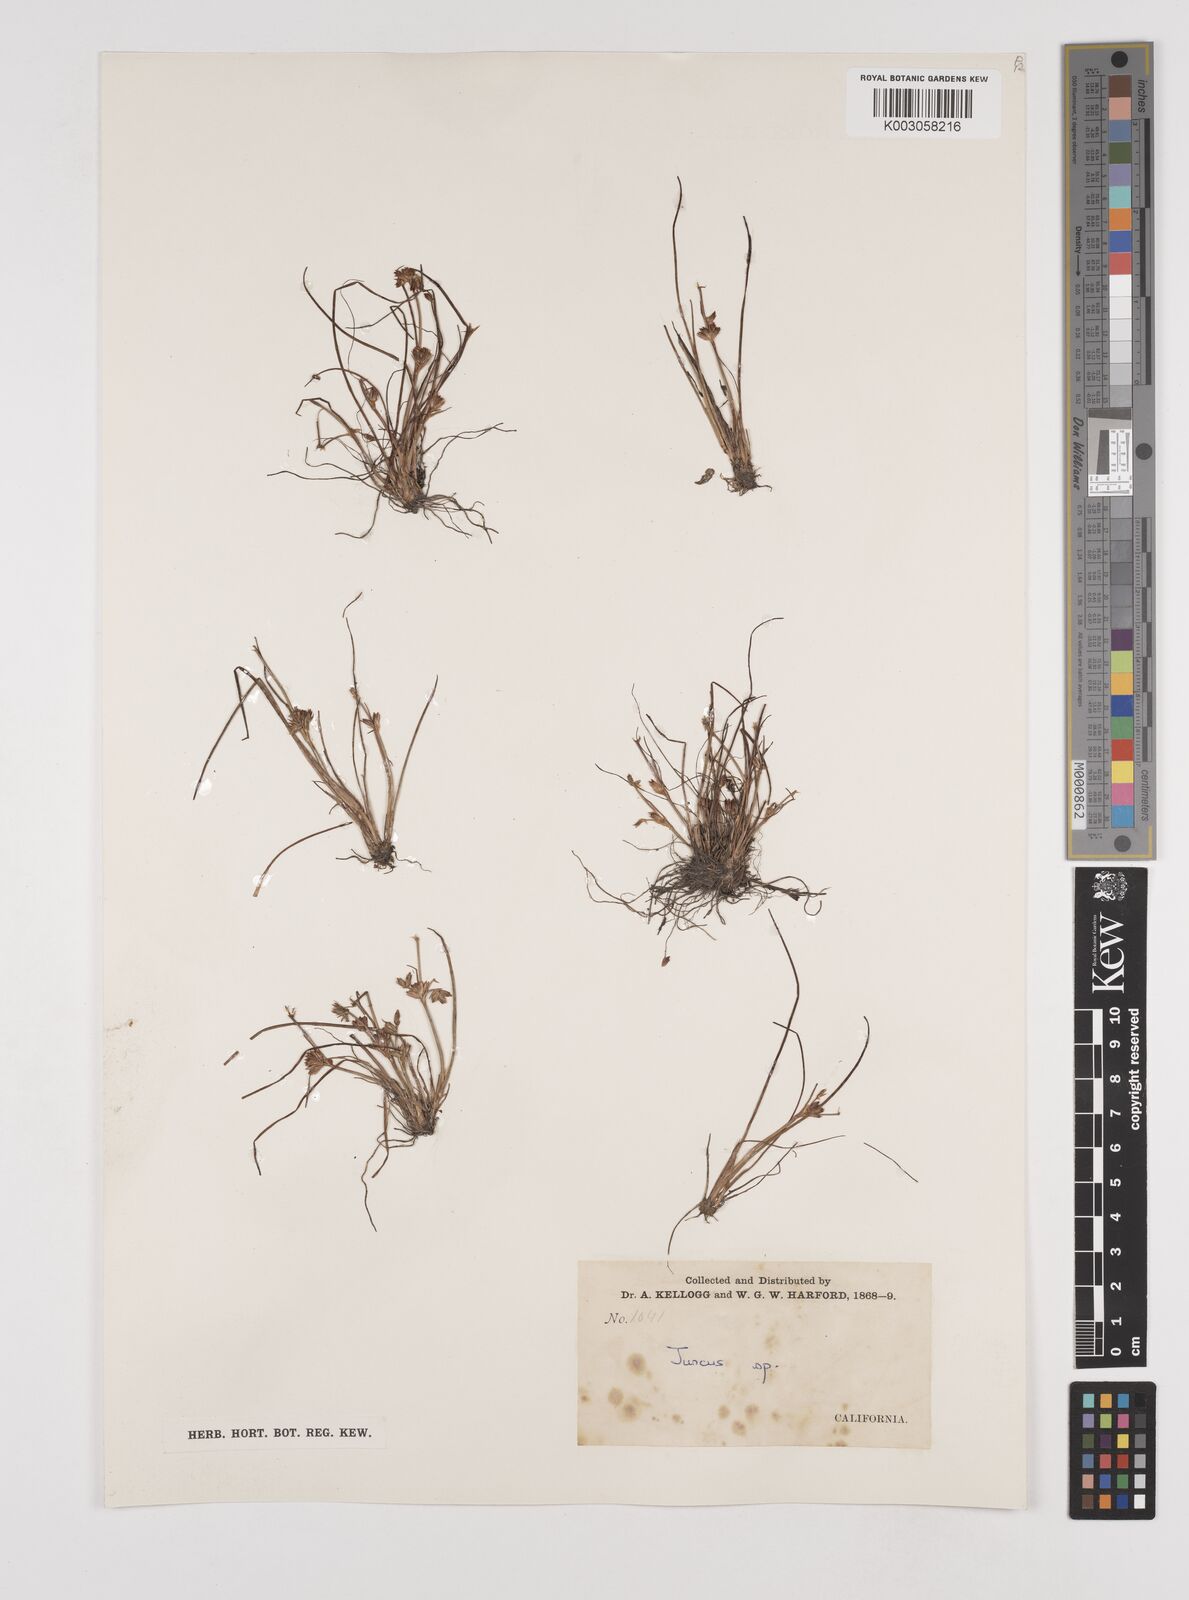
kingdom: Plantae
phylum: Tracheophyta
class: Liliopsida
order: Poales
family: Juncaceae
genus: Juncus
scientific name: Juncus
